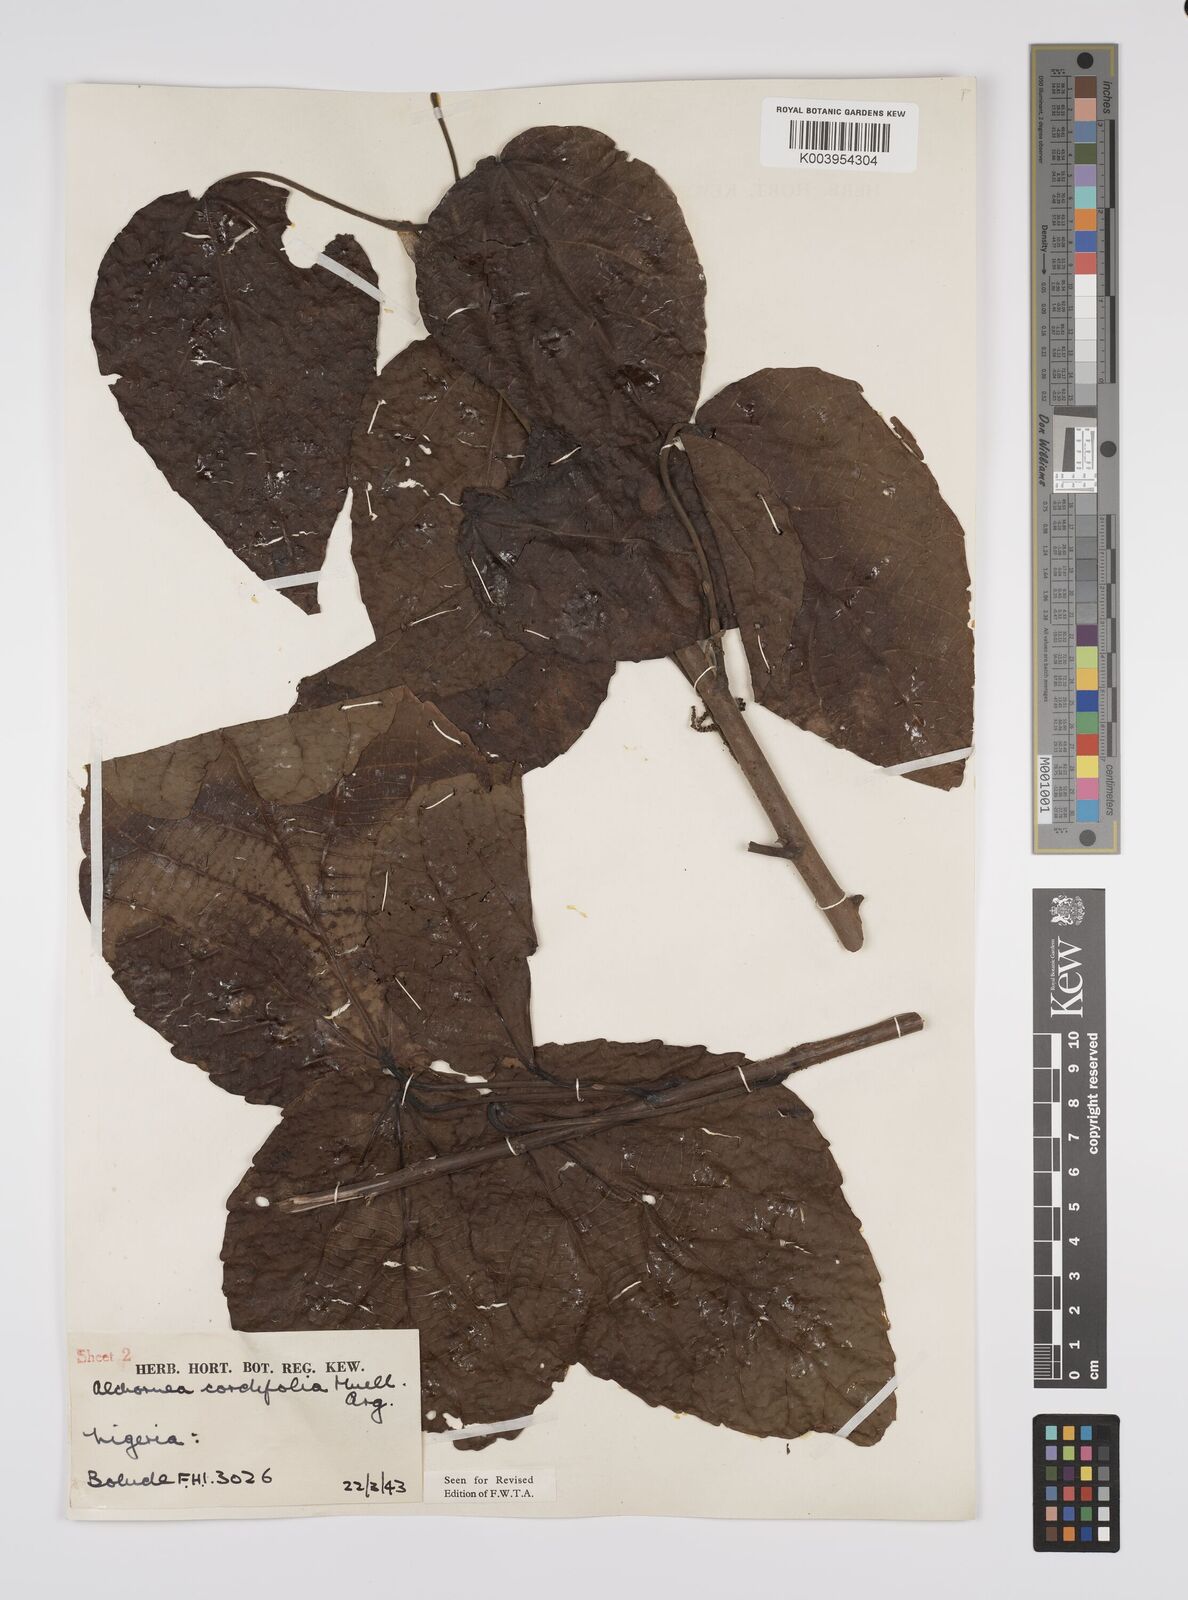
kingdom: Plantae
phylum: Tracheophyta
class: Magnoliopsida
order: Malpighiales
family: Euphorbiaceae
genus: Alchornea
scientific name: Alchornea cordifolia
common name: Christmasbush
